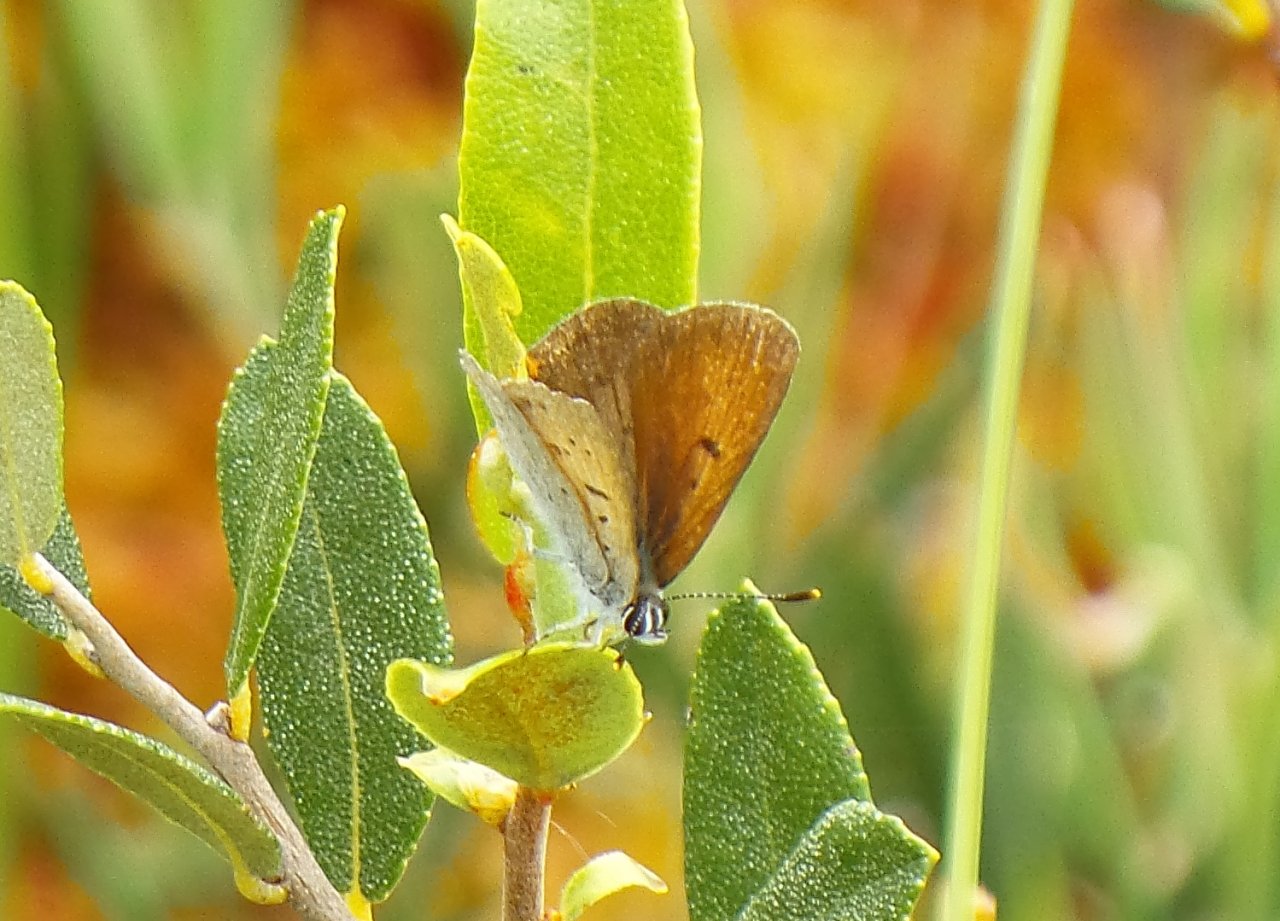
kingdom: Animalia
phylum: Arthropoda
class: Insecta
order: Lepidoptera
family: Sesiidae
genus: Sesia
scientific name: Sesia Lycaena epixanthe
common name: Bog Copper
